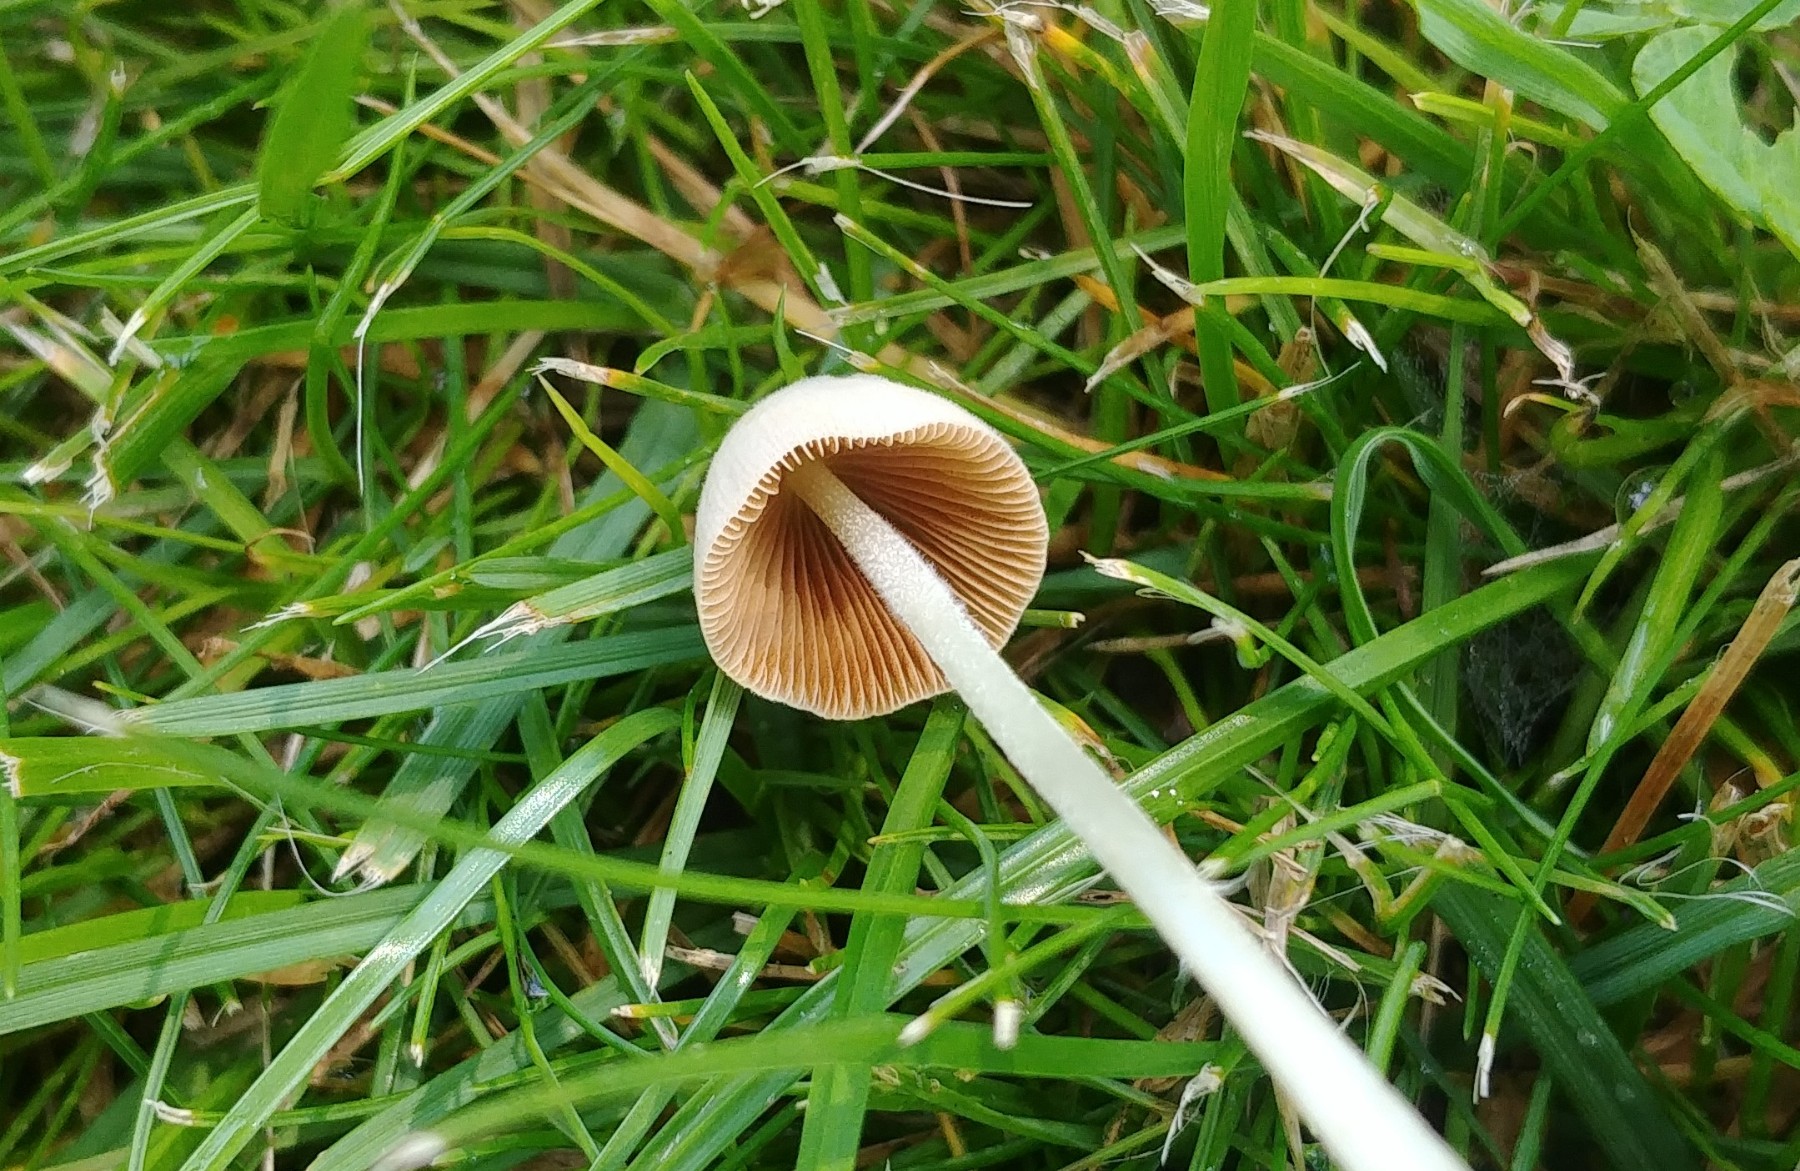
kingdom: Fungi
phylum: Basidiomycota
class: Agaricomycetes
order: Agaricales
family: Bolbitiaceae
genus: Conocybe
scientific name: Conocybe apala
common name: mælkehvid keglehat
